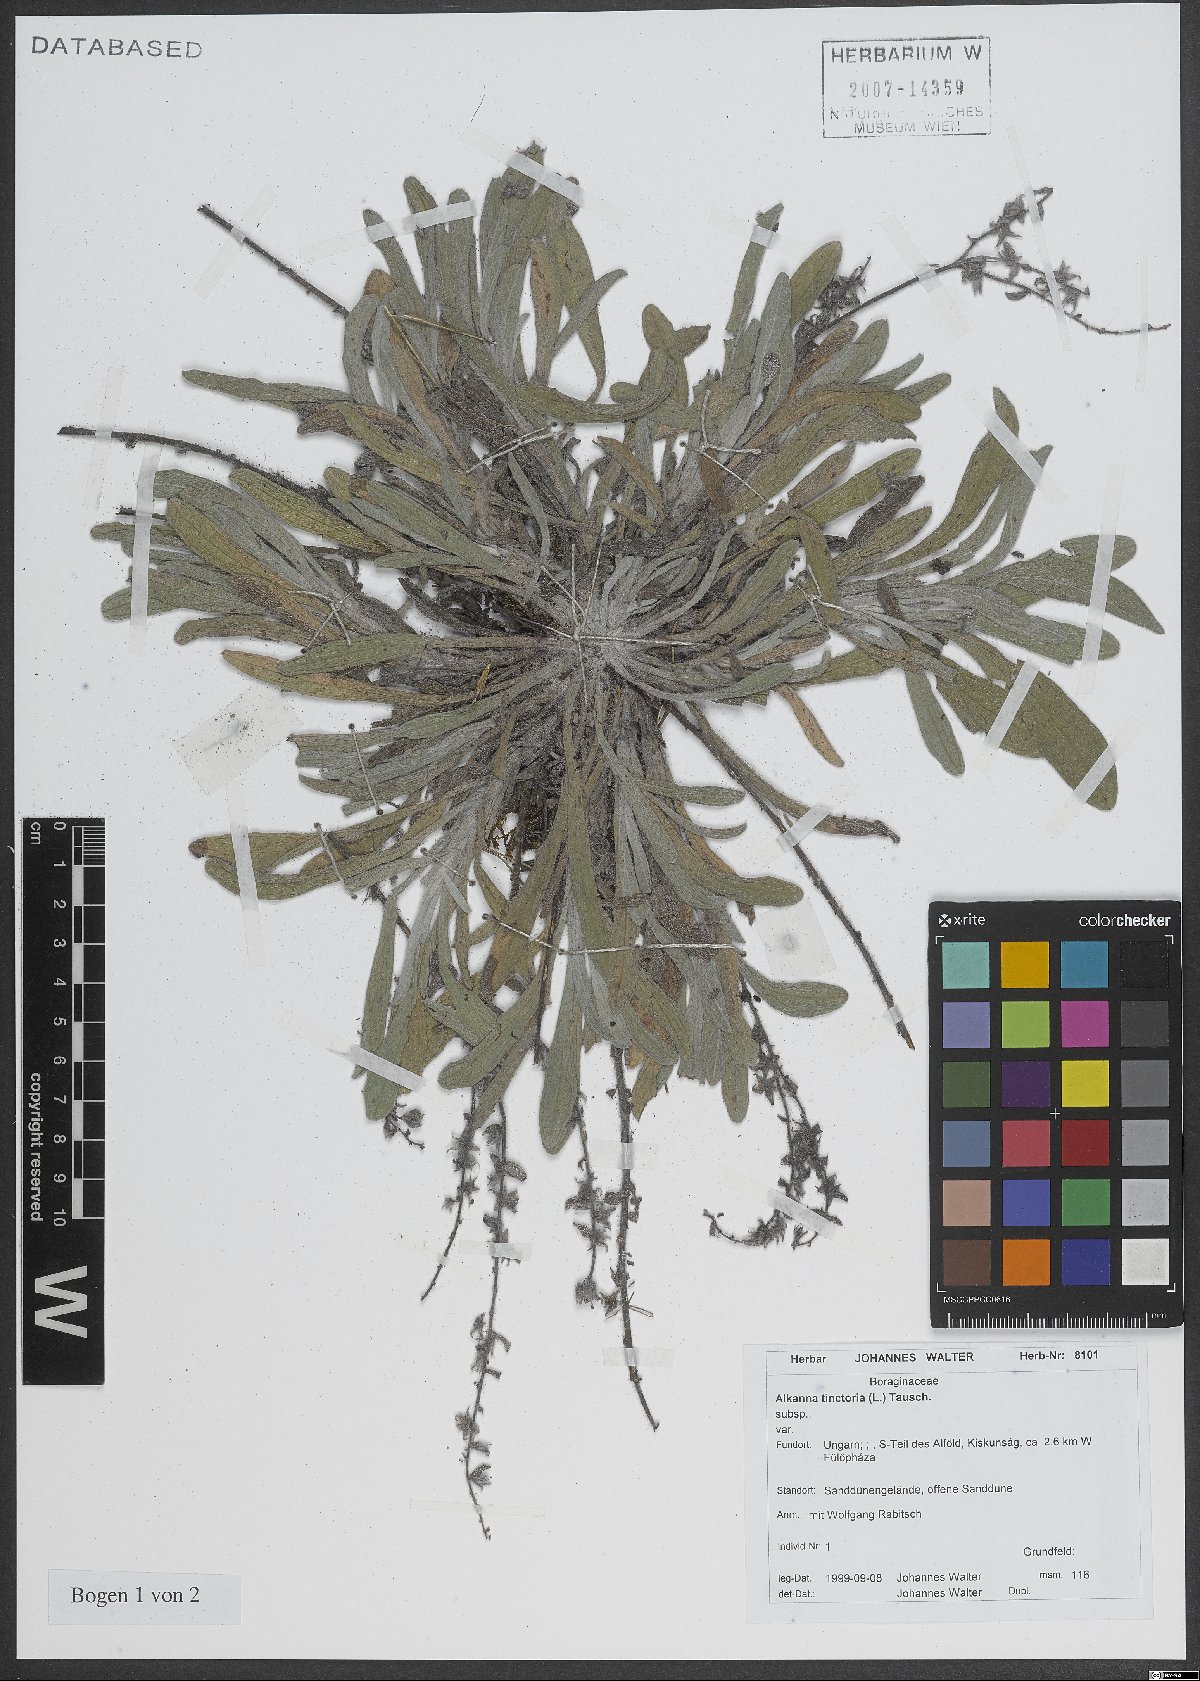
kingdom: Plantae
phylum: Tracheophyta
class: Magnoliopsida
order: Boraginales
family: Boraginaceae
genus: Alkanna
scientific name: Alkanna tinctoria
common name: Dyer's-alkanet
